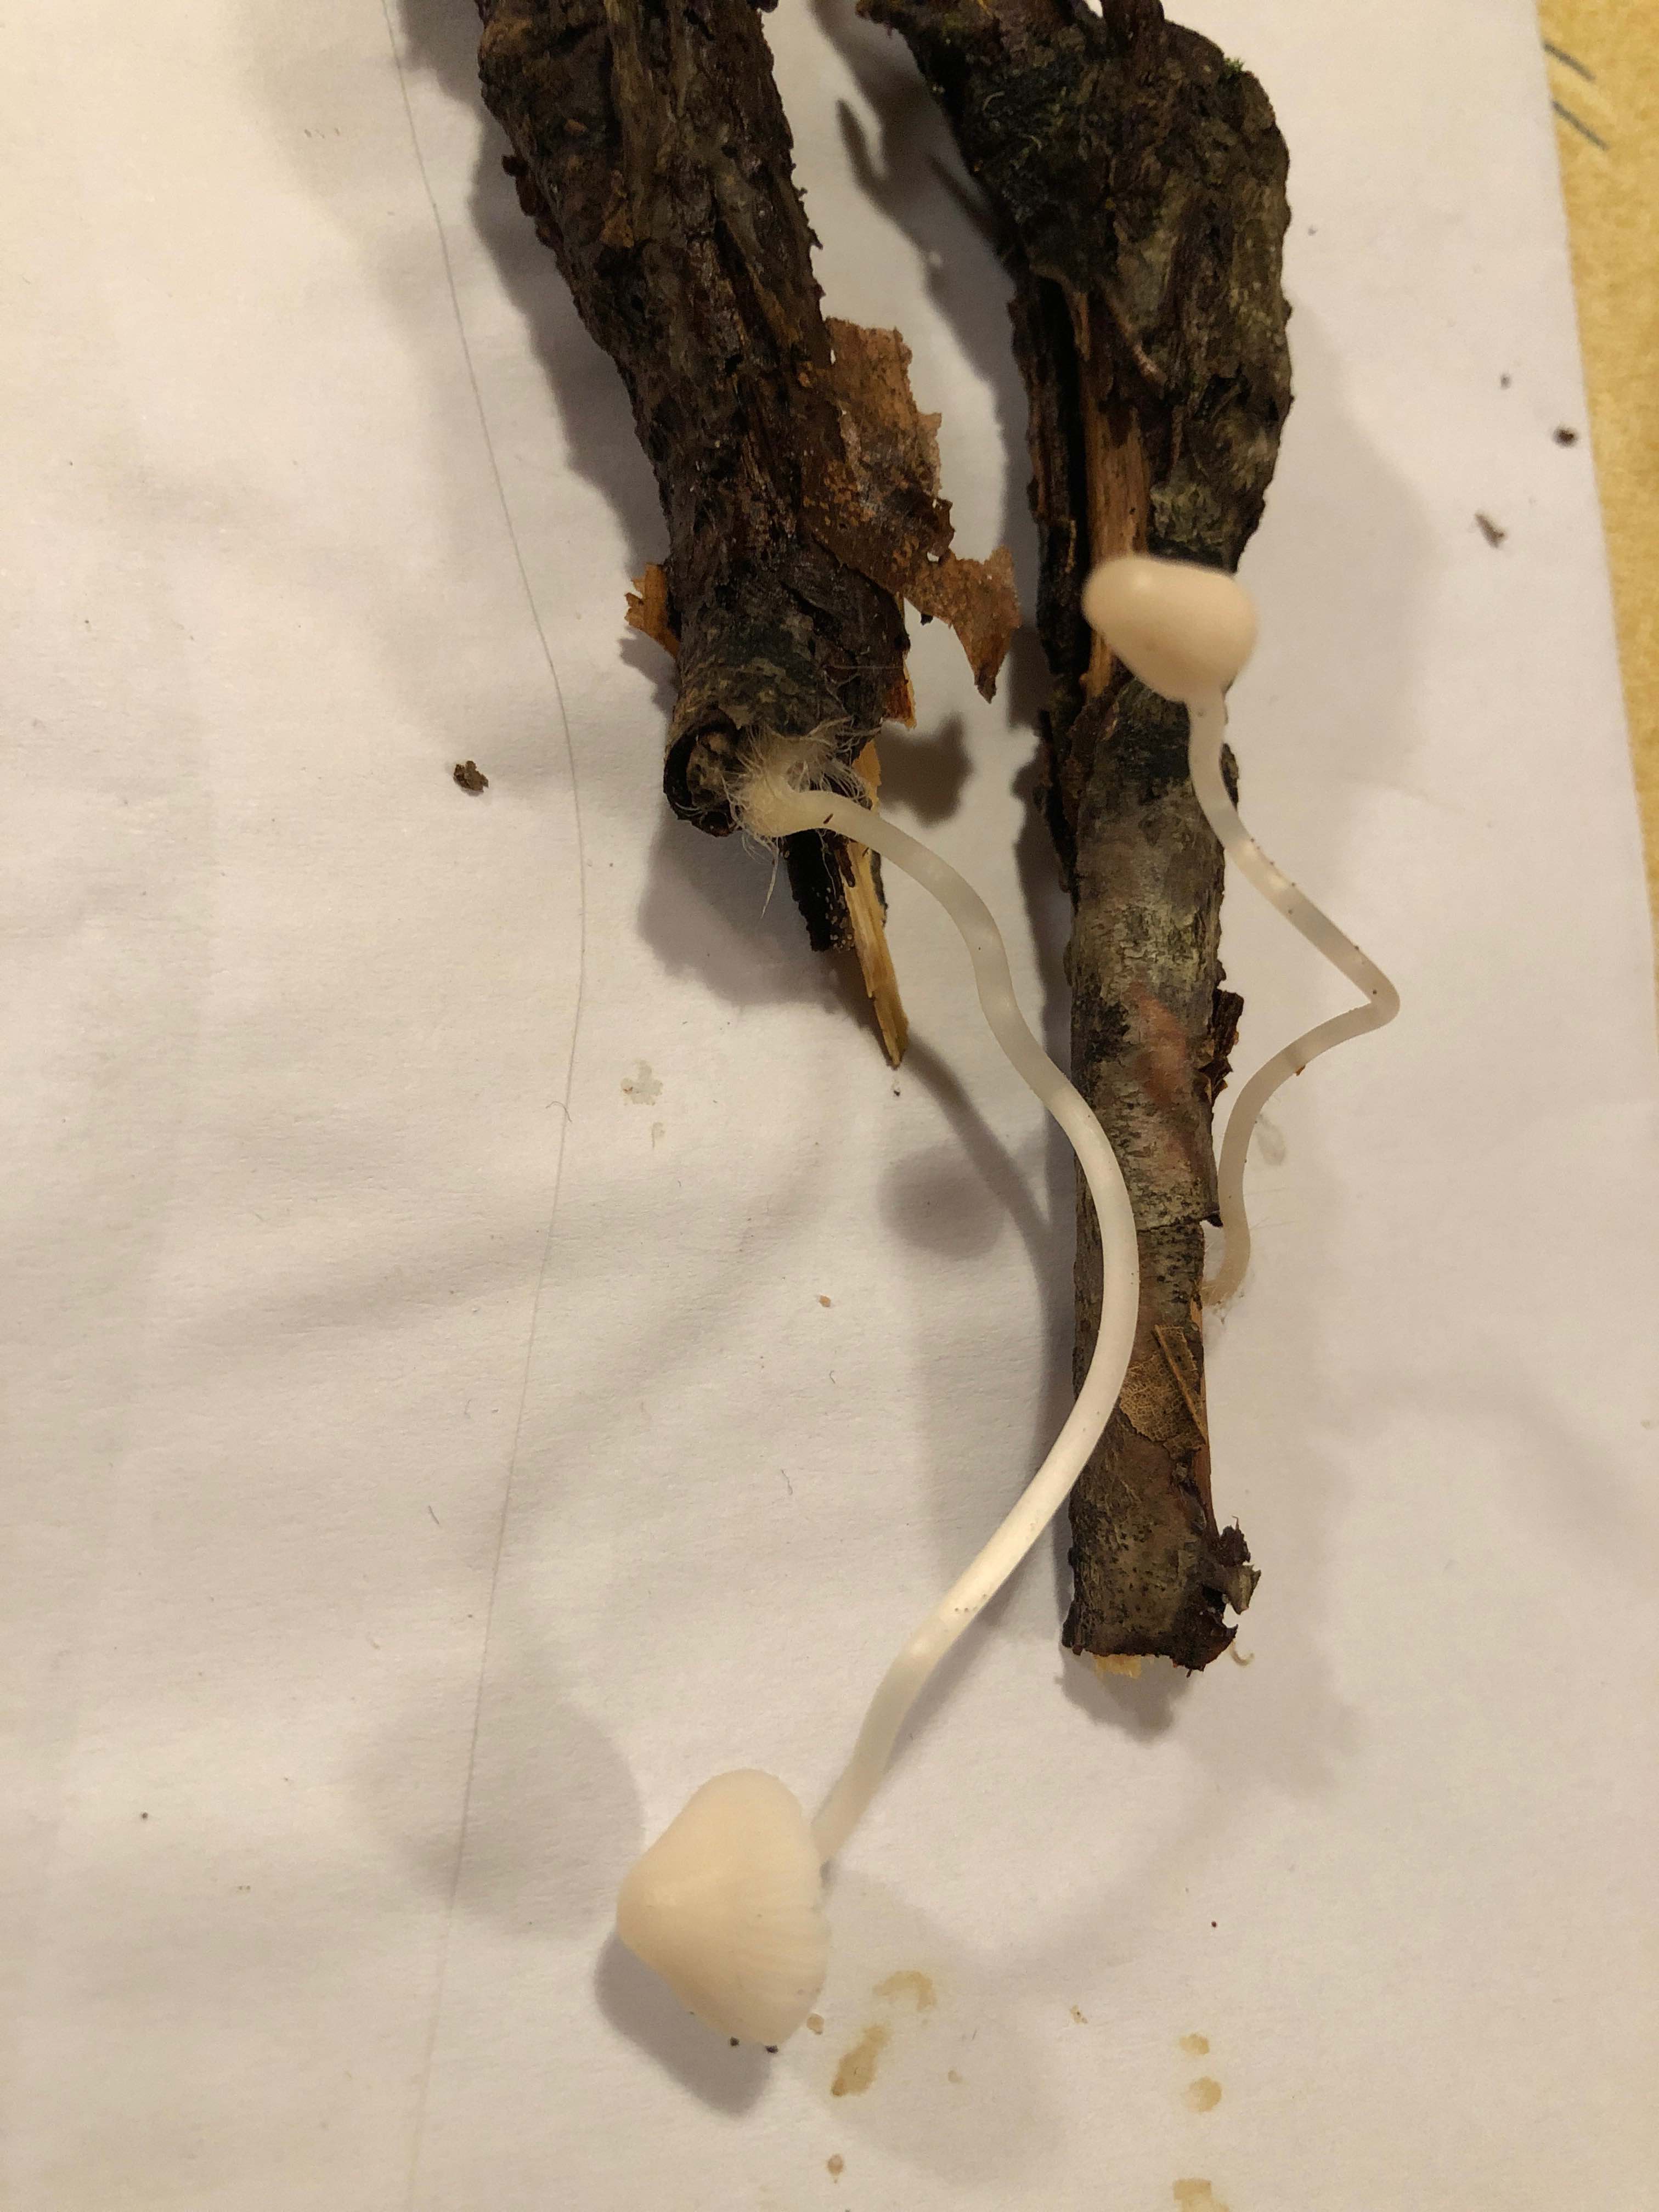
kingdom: Fungi
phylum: Basidiomycota
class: Agaricomycetes
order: Agaricales
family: Mycenaceae
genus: Mycena
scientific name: Mycena vitilis
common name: blankstokket huesvamp
